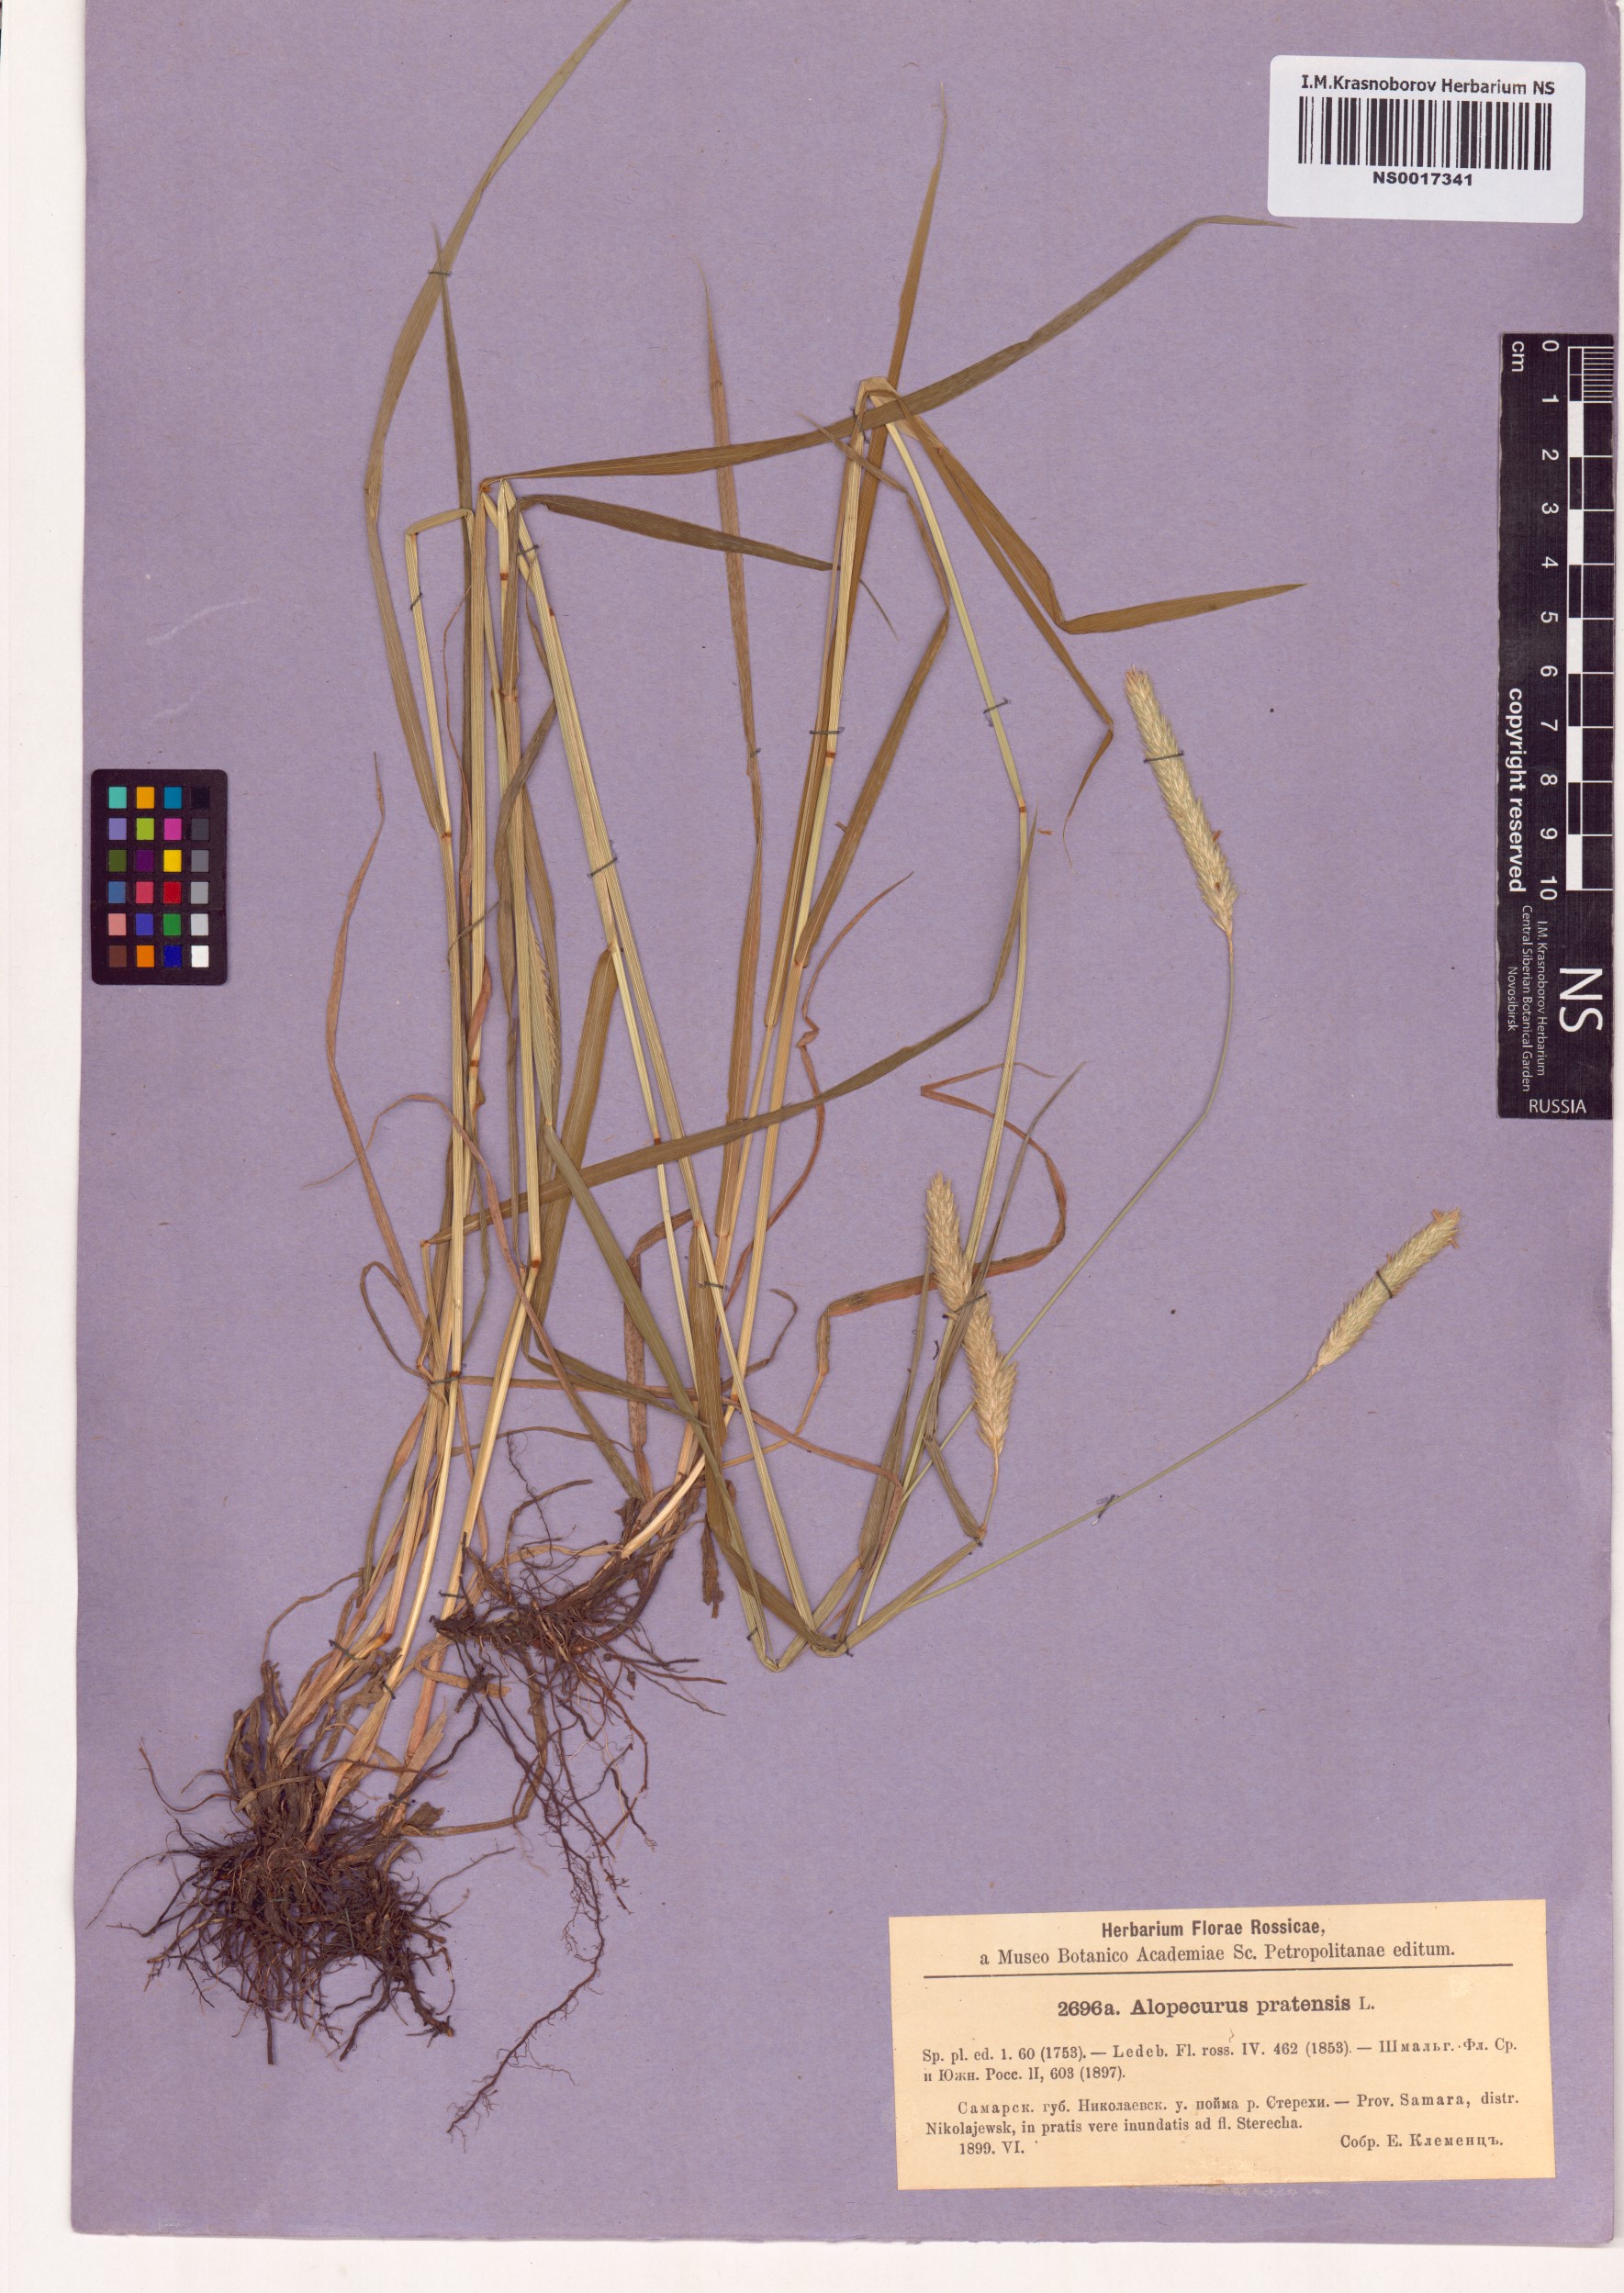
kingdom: Plantae
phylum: Tracheophyta
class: Liliopsida
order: Poales
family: Poaceae
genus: Alopecurus
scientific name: Alopecurus pratensis
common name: Meadow foxtail
